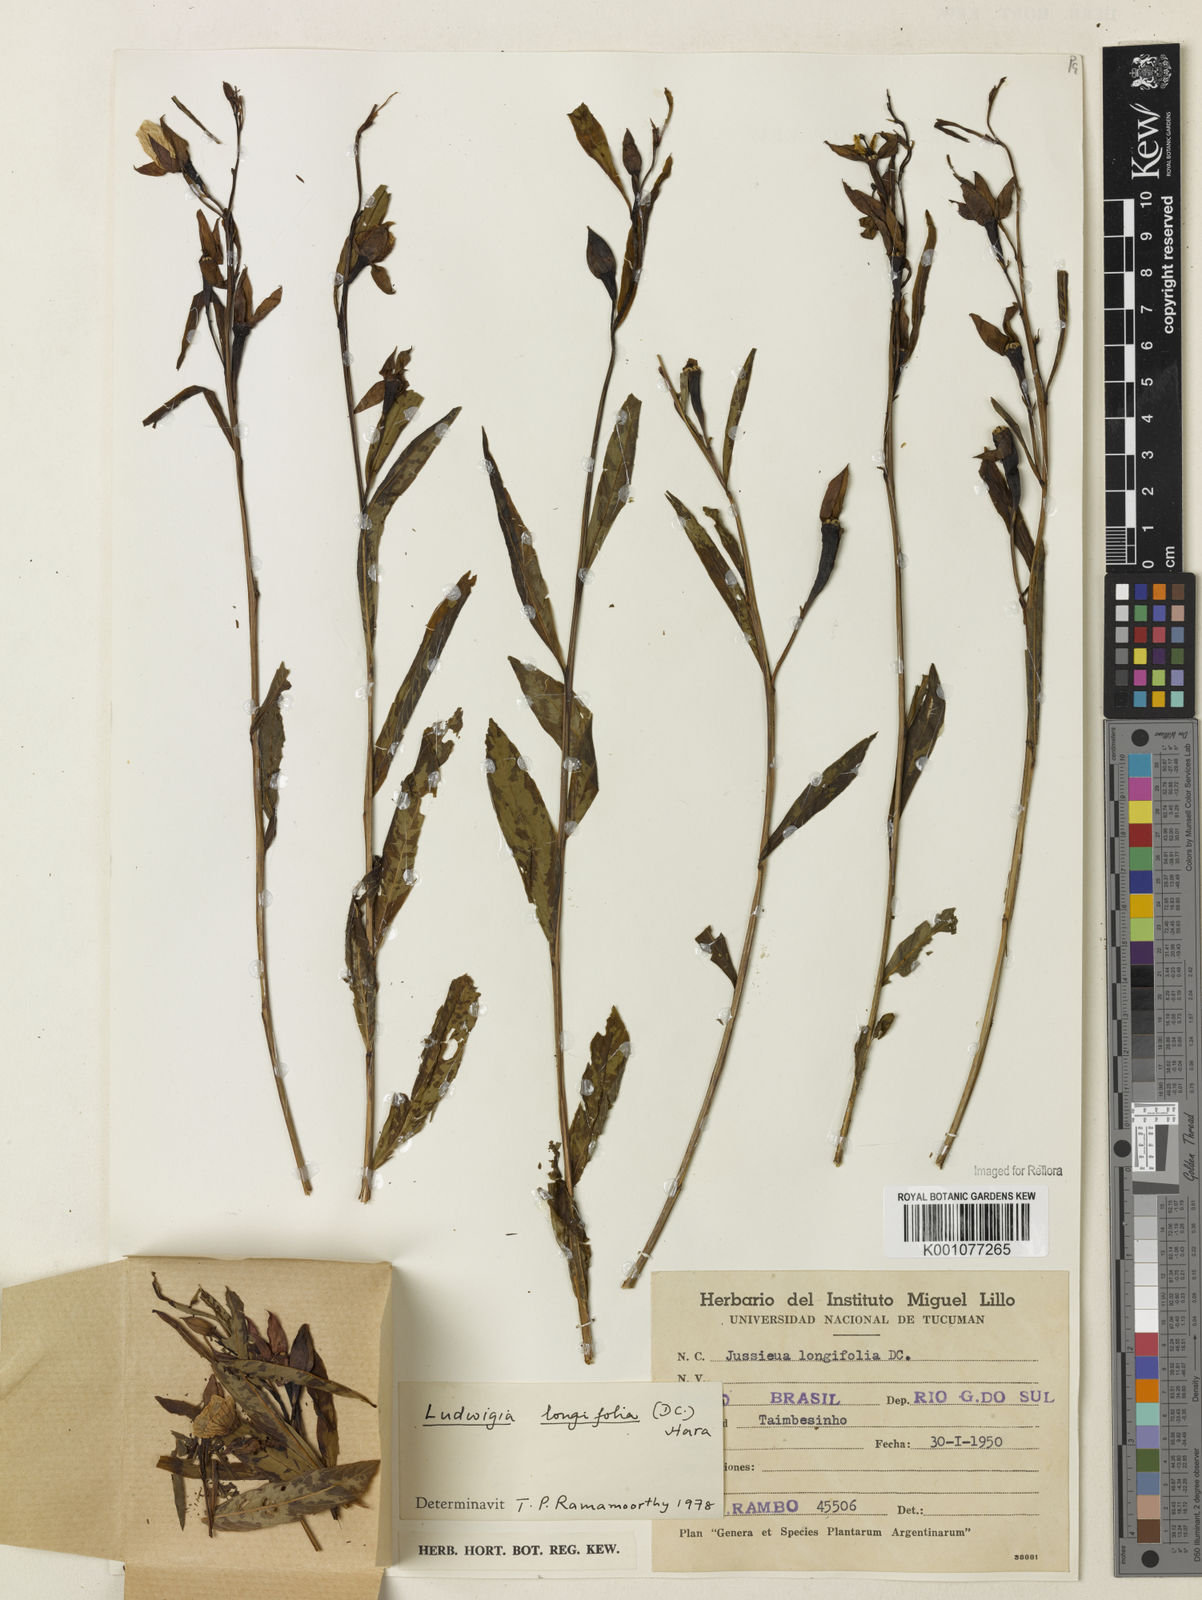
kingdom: Plantae
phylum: Tracheophyta
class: Magnoliopsida
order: Myrtales
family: Onagraceae
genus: Ludwigia
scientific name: Ludwigia longifolia
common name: Longleaf primrose-willow
